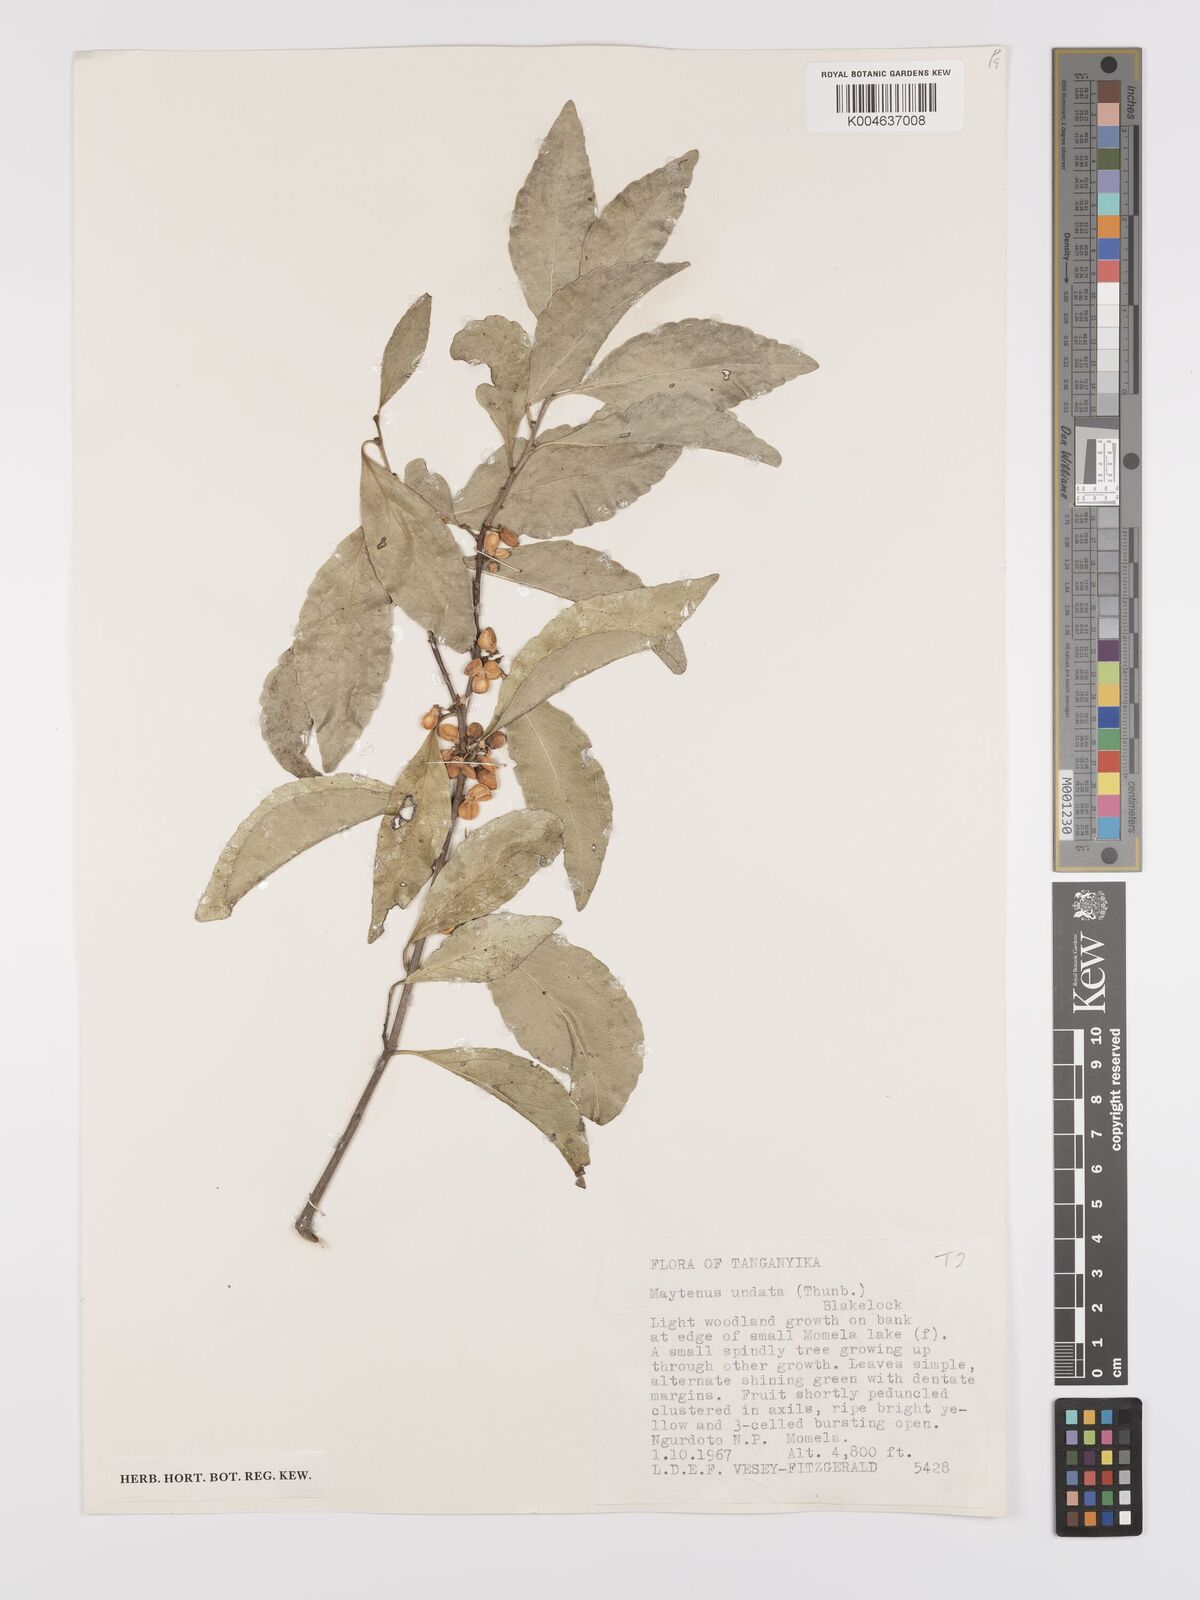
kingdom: Plantae
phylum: Tracheophyta
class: Magnoliopsida
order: Celastrales
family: Celastraceae
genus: Gymnosporia
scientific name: Gymnosporia undata
